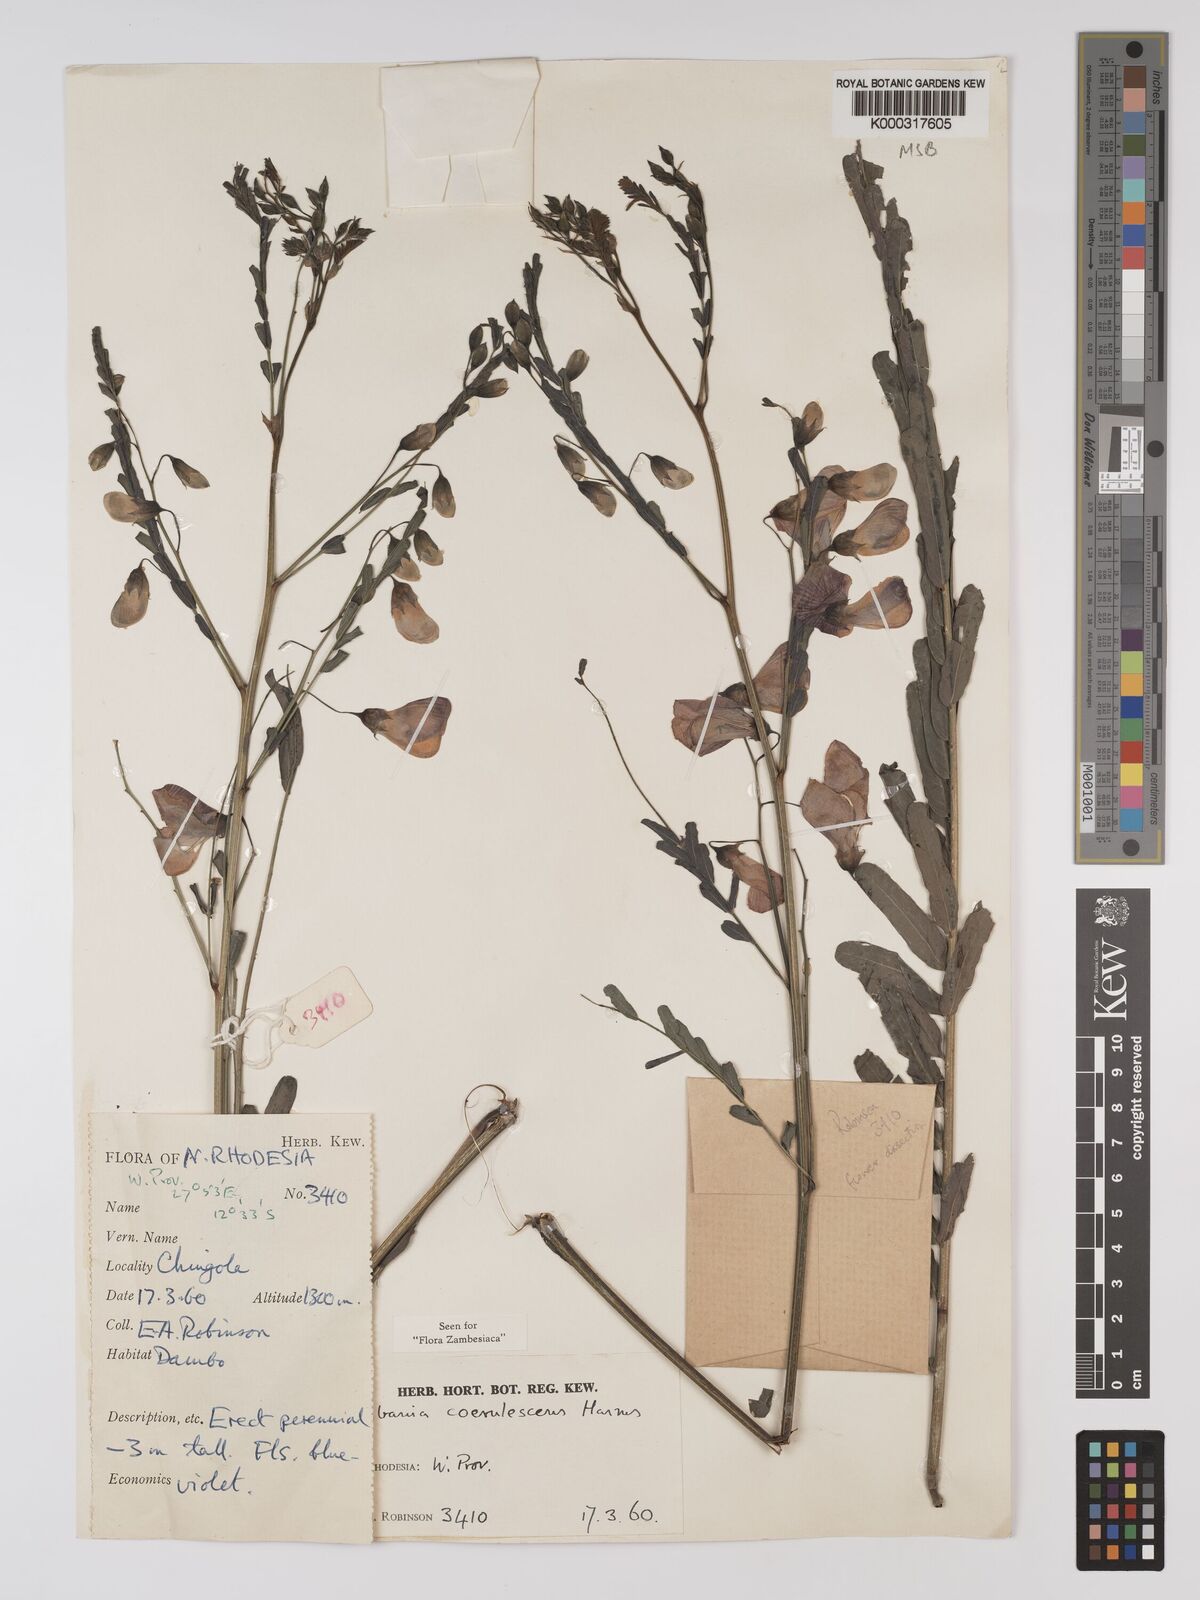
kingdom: Plantae
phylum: Tracheophyta
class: Magnoliopsida
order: Fabales
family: Fabaceae
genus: Sesbania
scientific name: Sesbania coerulescens
